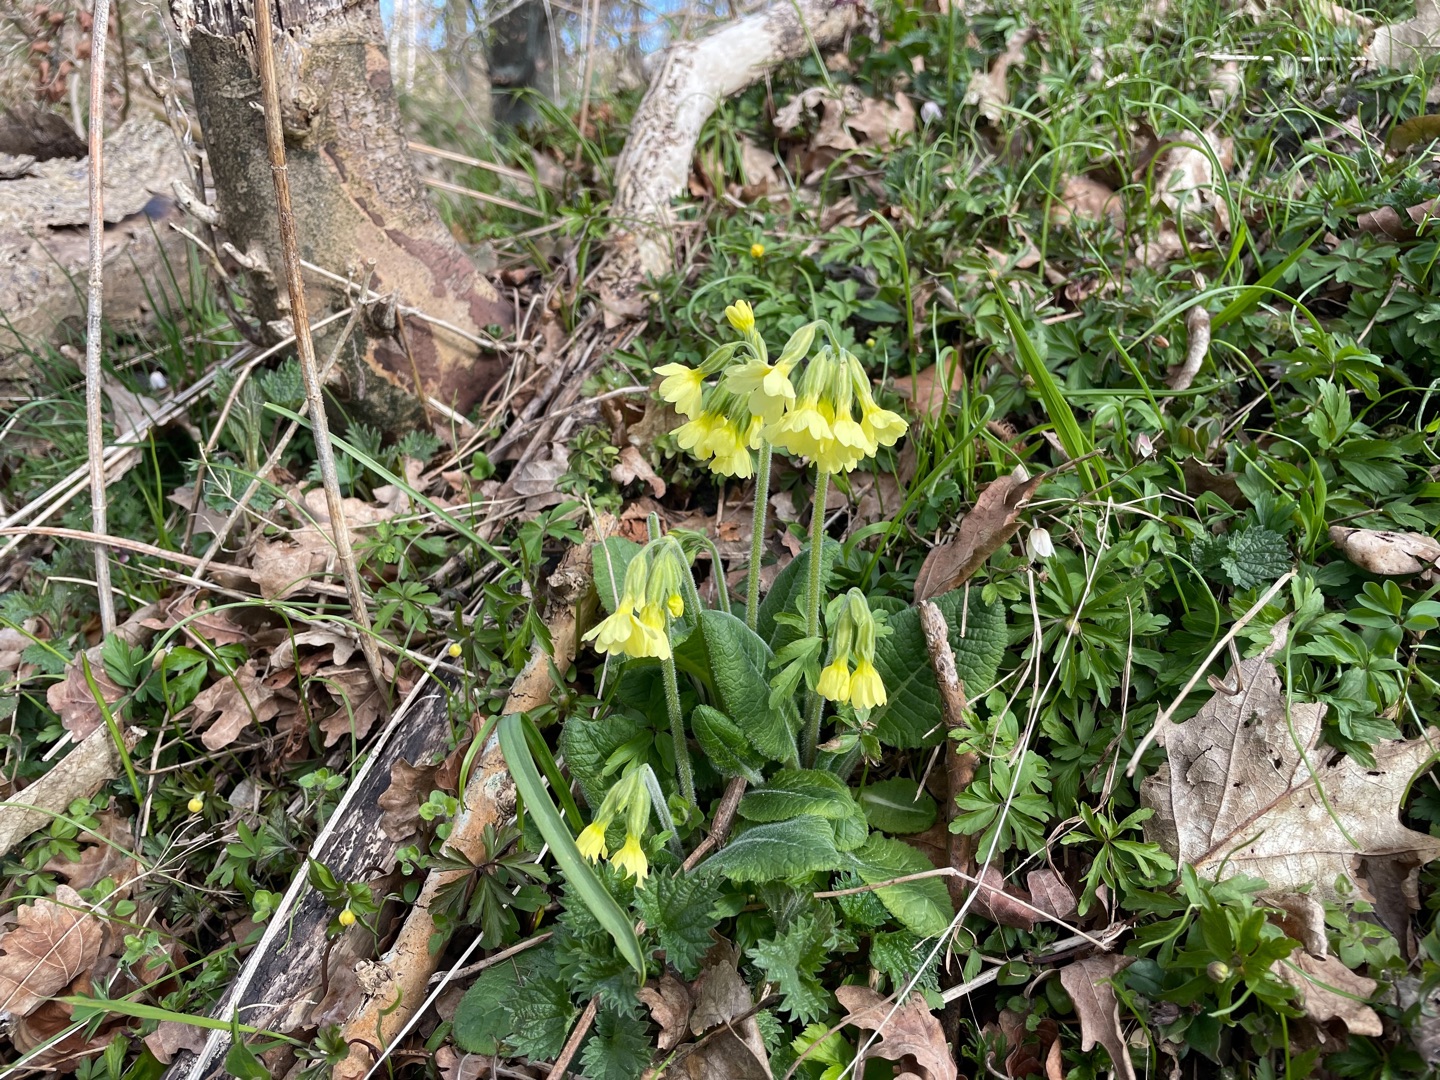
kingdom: Plantae
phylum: Tracheophyta
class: Magnoliopsida
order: Ericales
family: Primulaceae
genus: Primula
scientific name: Primula elatior
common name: Fladkravet kodriver
